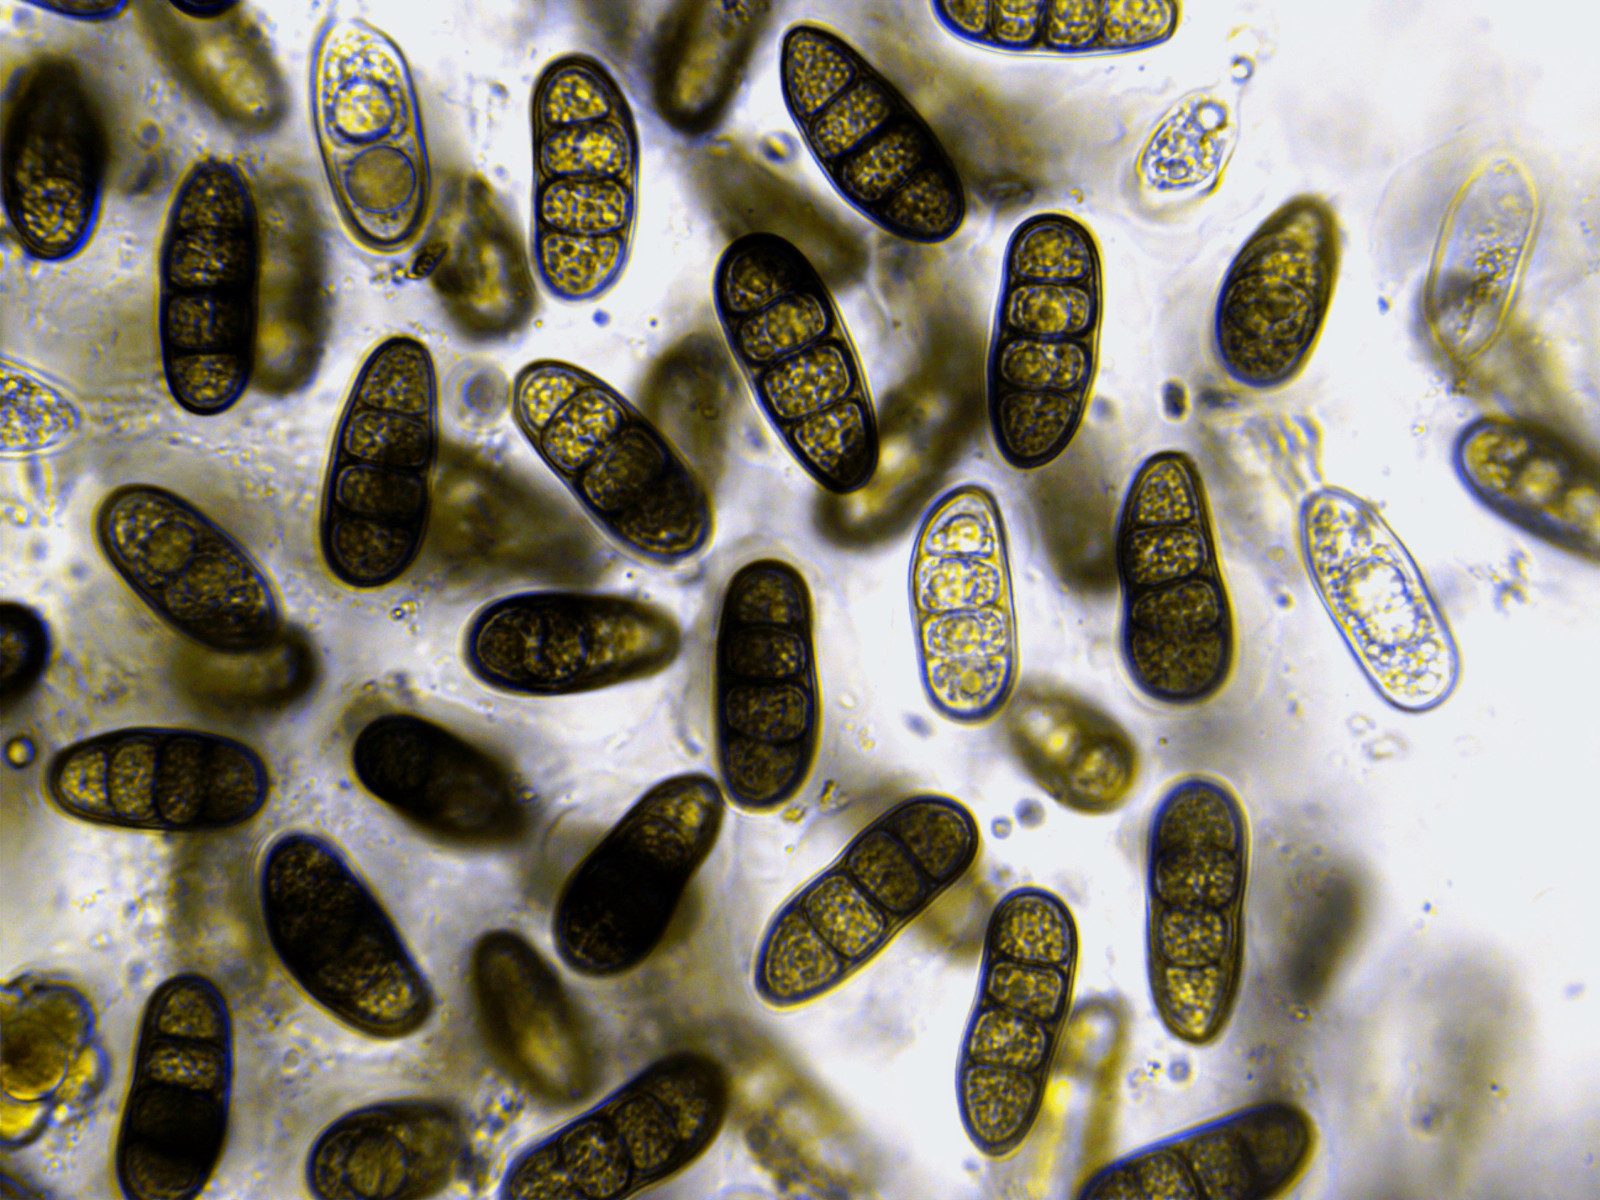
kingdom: Fungi
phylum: Ascomycota
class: Dothideomycetes
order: Pleosporales
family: Macrodiplodiopsidaceae
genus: Macrodiplodiopsis
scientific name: Macrodiplodiopsis desmazieri
